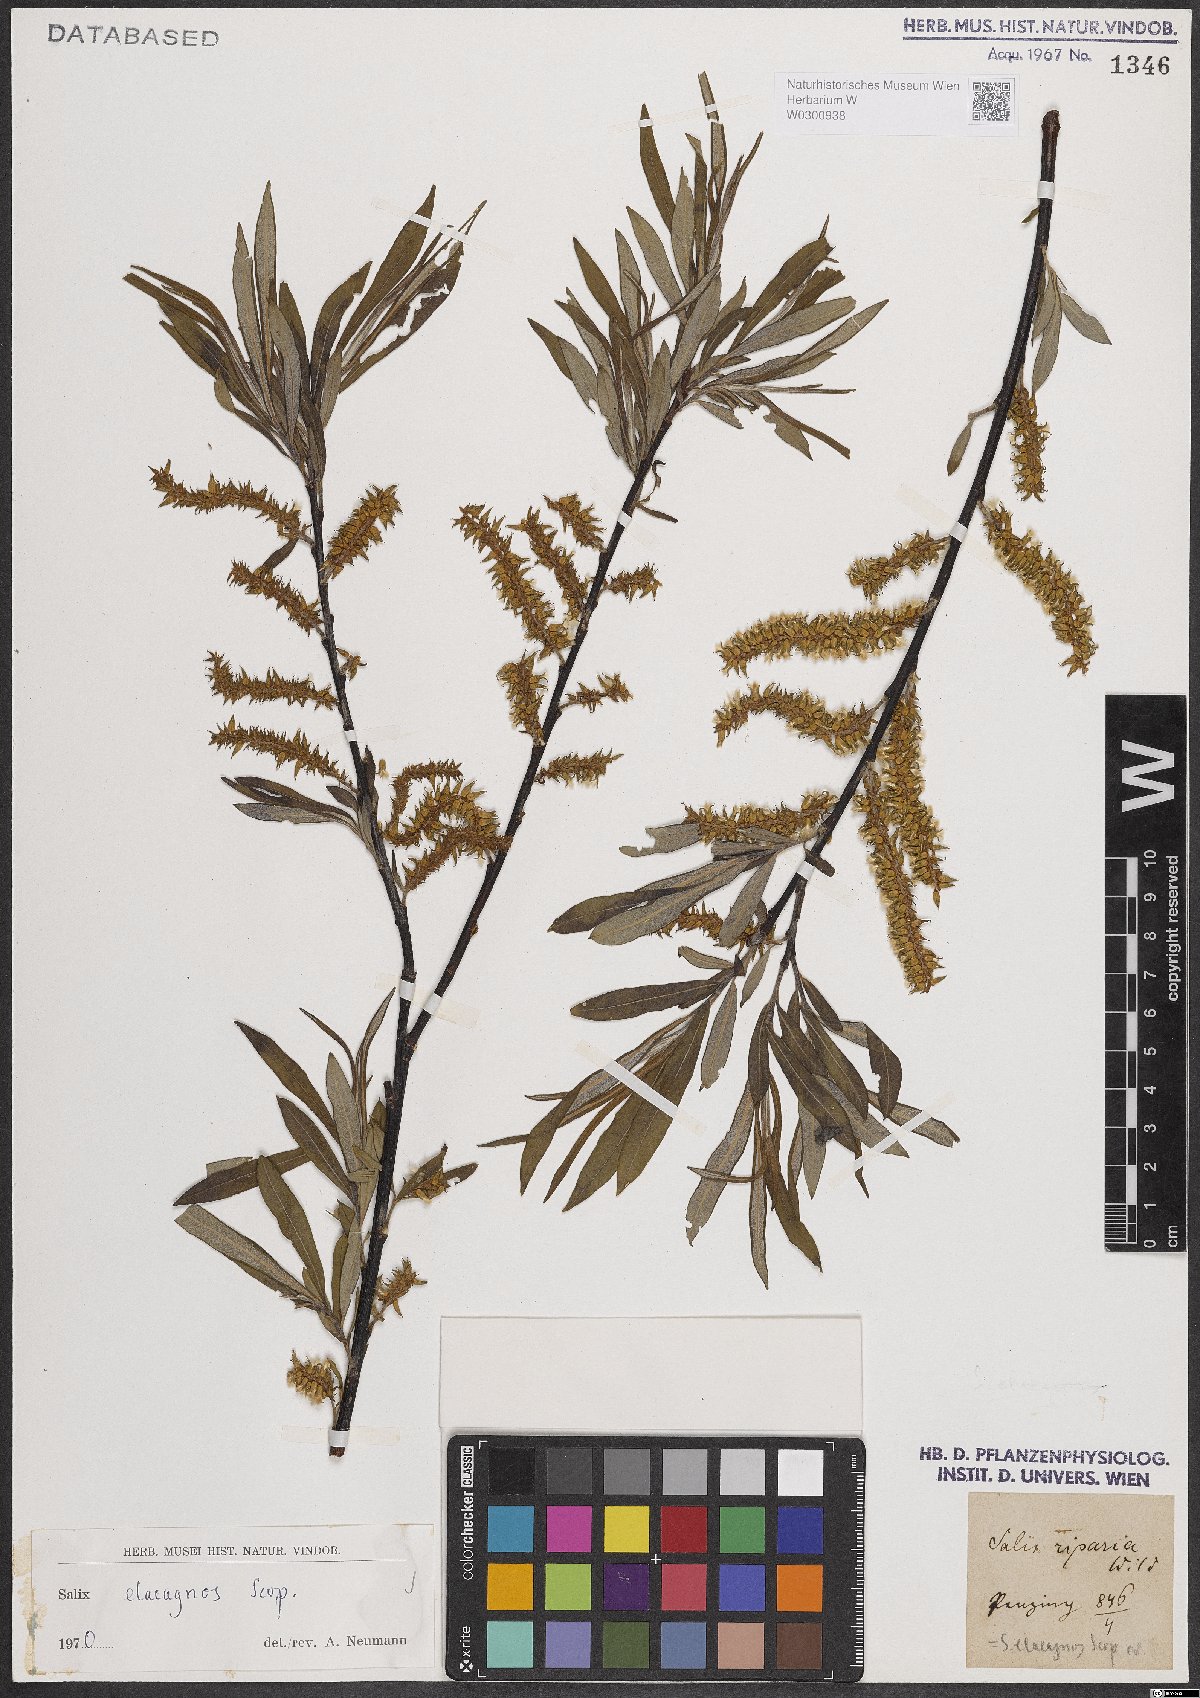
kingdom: Plantae
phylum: Tracheophyta
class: Magnoliopsida
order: Malpighiales
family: Salicaceae
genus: Salix
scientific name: Salix eleagnos
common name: Elaeagnus willow
